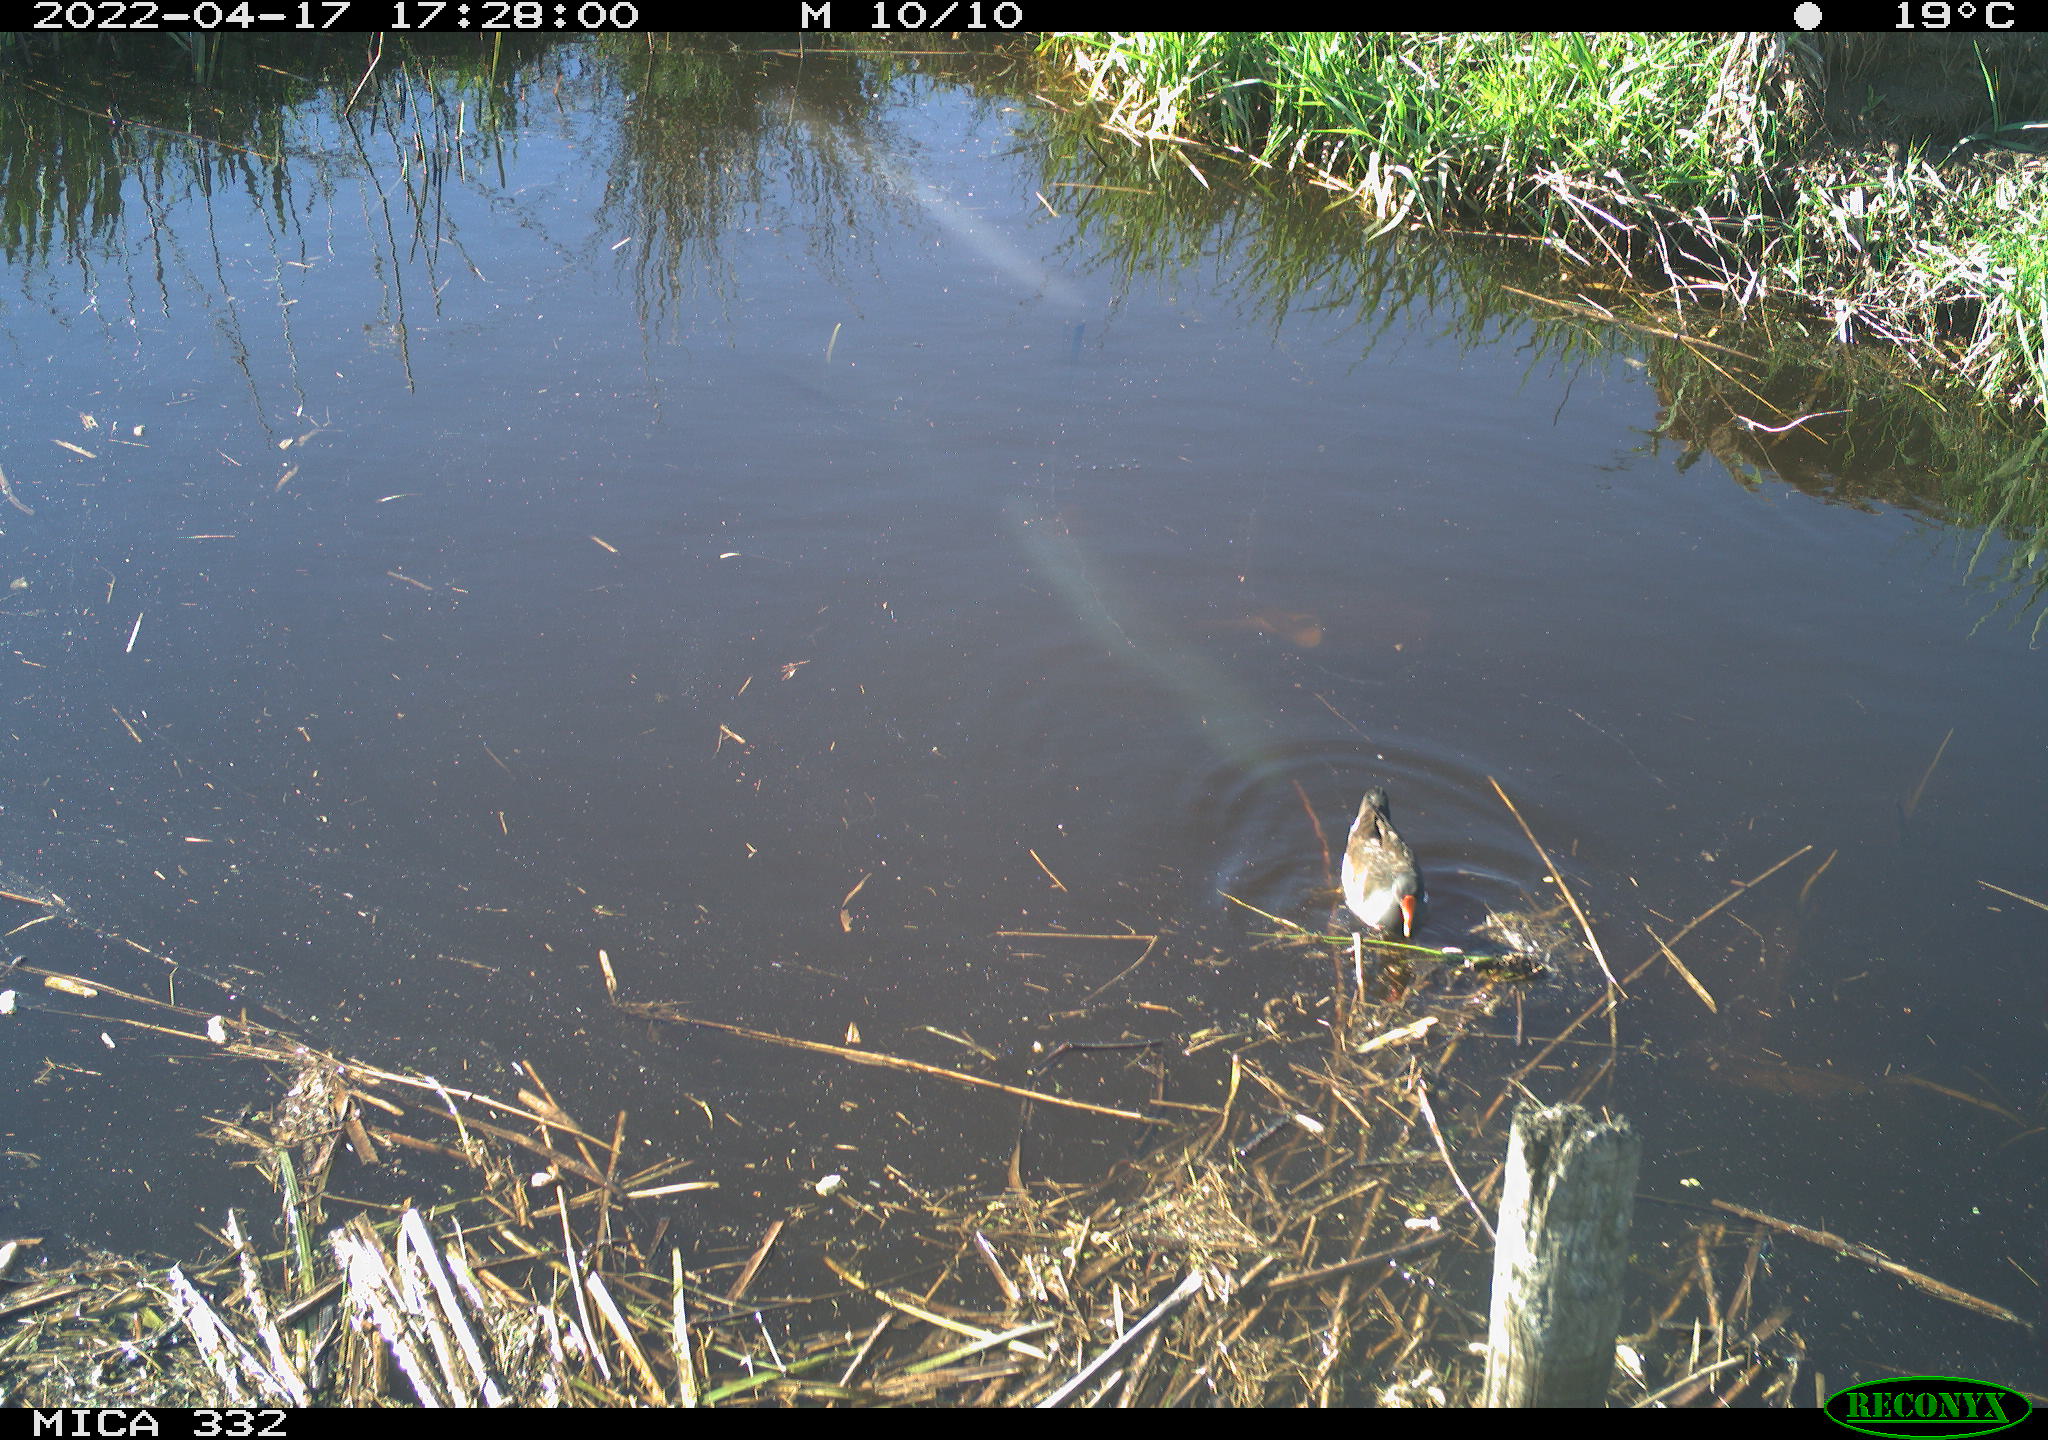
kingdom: Animalia
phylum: Chordata
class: Aves
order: Gruiformes
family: Rallidae
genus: Gallinula
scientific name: Gallinula chloropus
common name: Common moorhen
